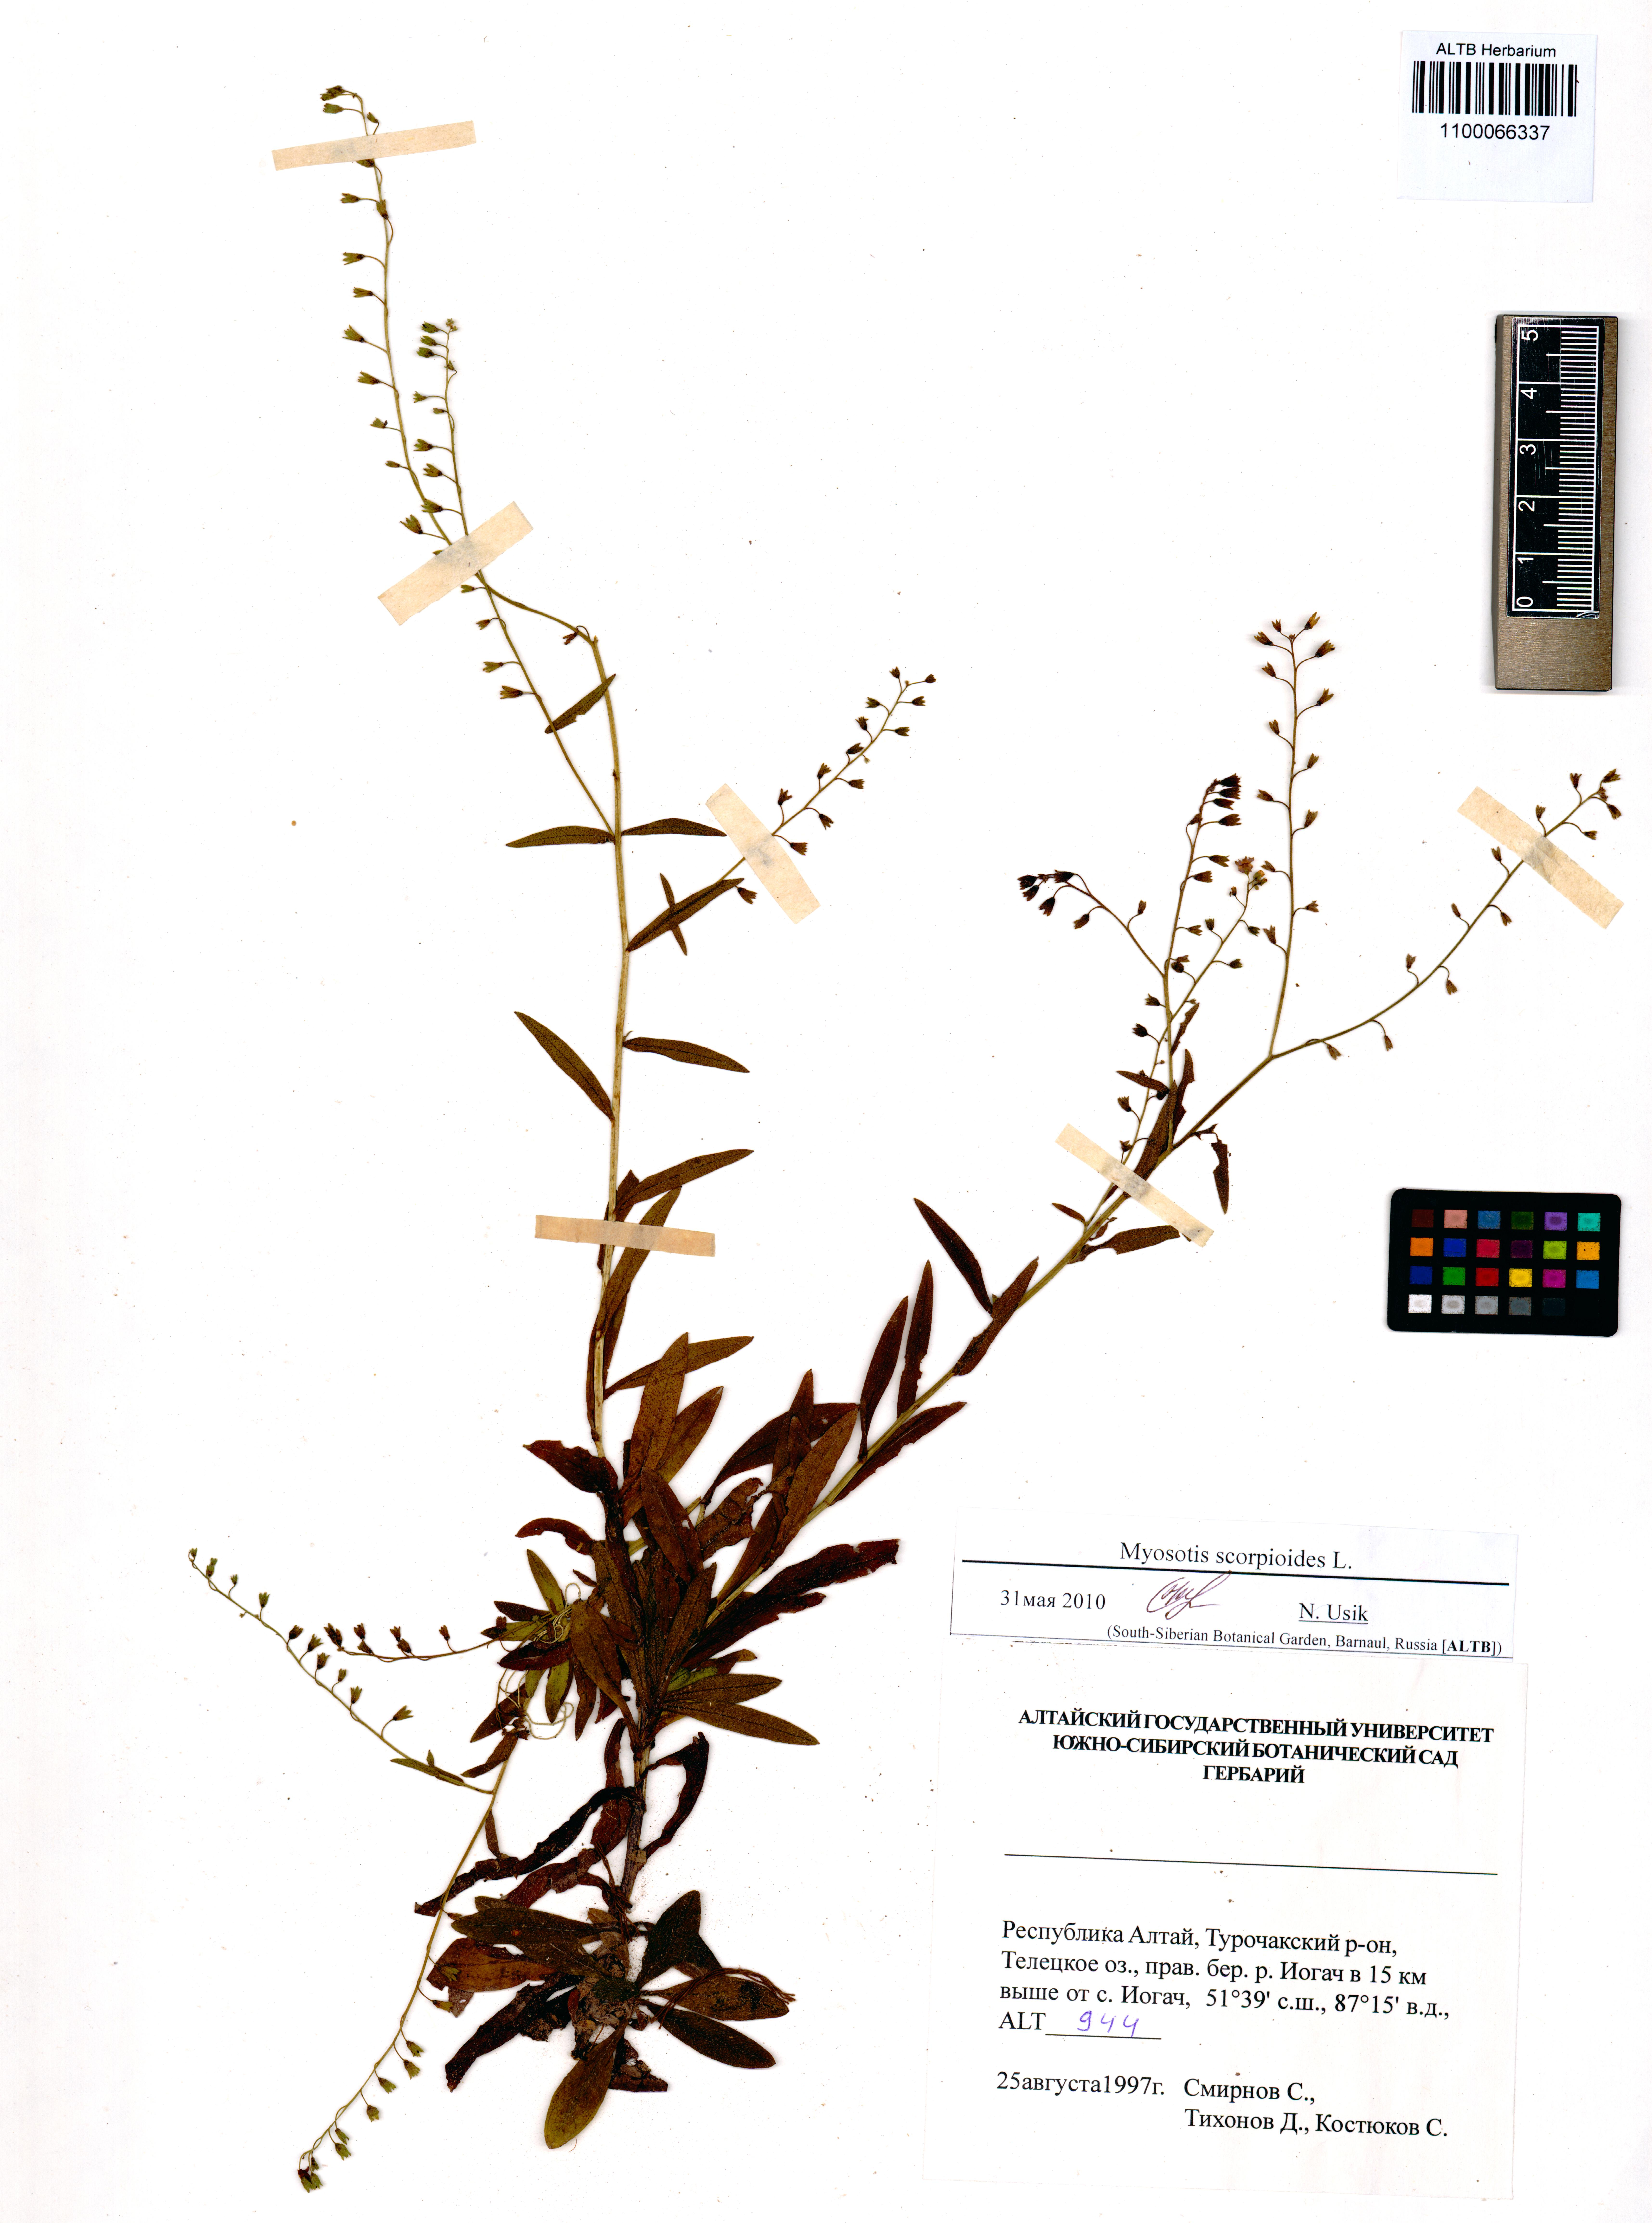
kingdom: Plantae
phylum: Tracheophyta
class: Magnoliopsida
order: Boraginales
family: Boraginaceae
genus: Myosotis
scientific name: Myosotis scorpioides
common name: Water forget-me-not
